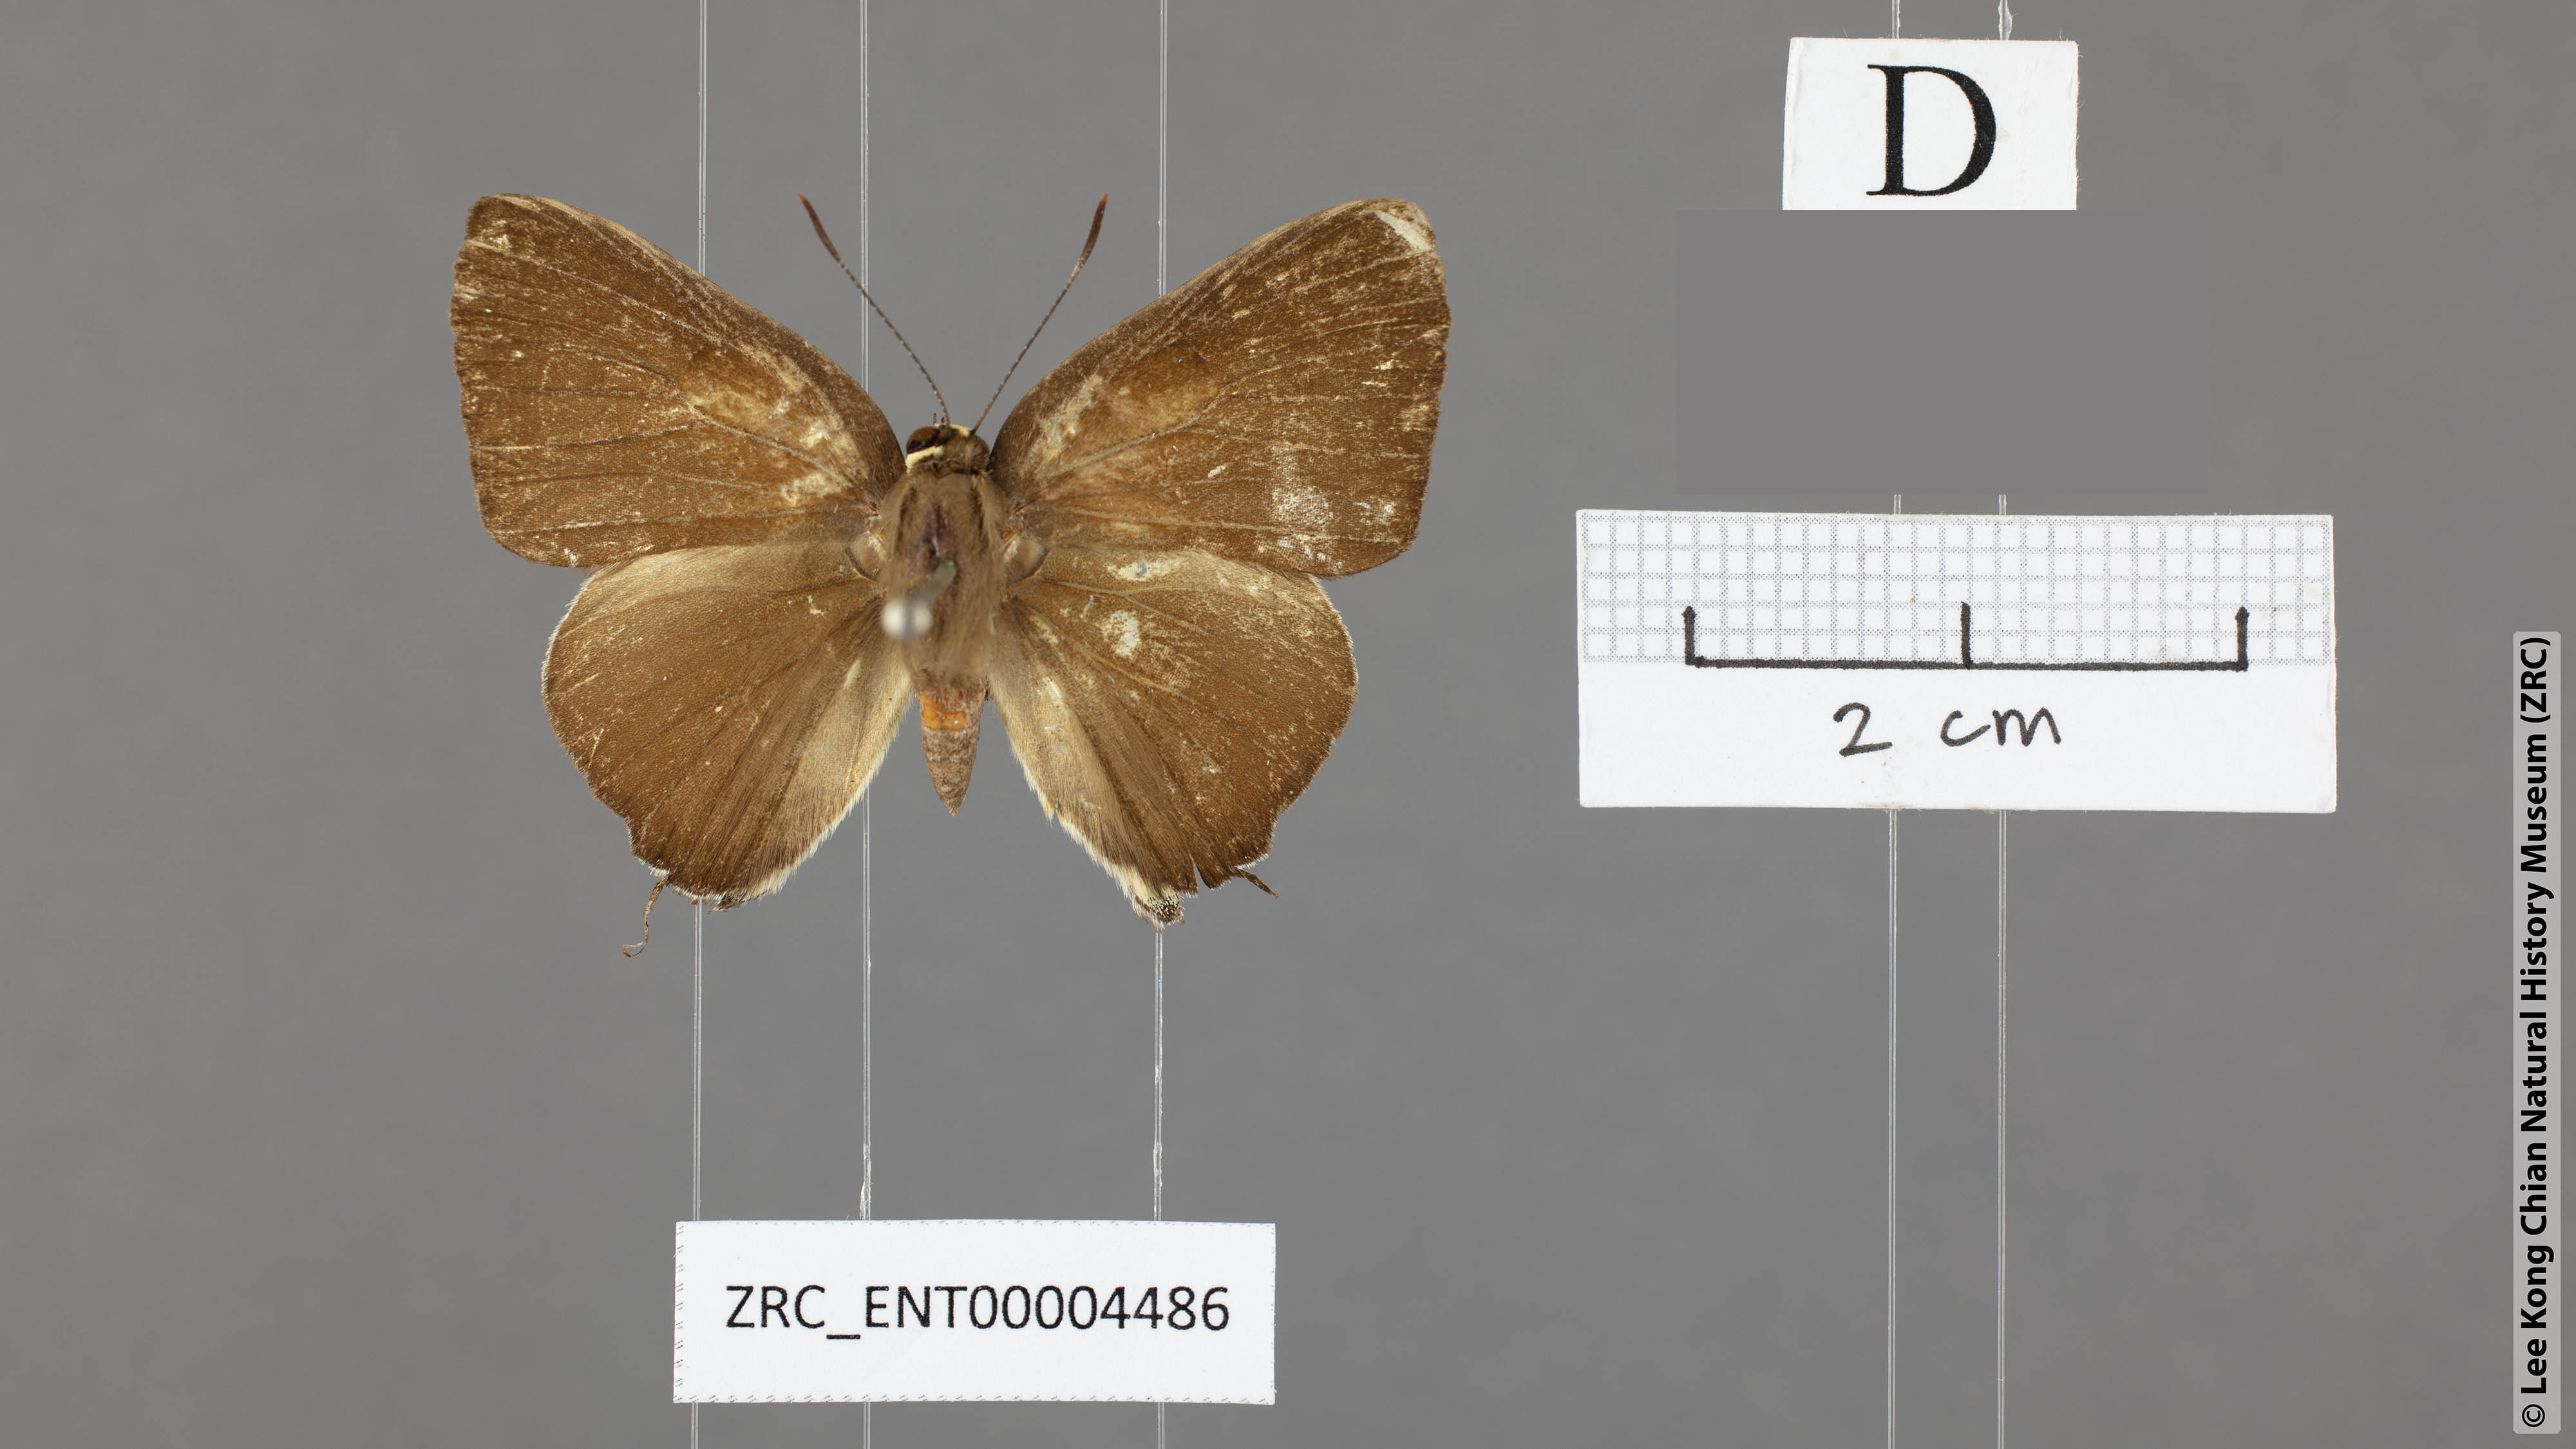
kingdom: Animalia
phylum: Arthropoda
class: Insecta
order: Lepidoptera
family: Lycaenidae
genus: Rapala
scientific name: Rapala domitia
